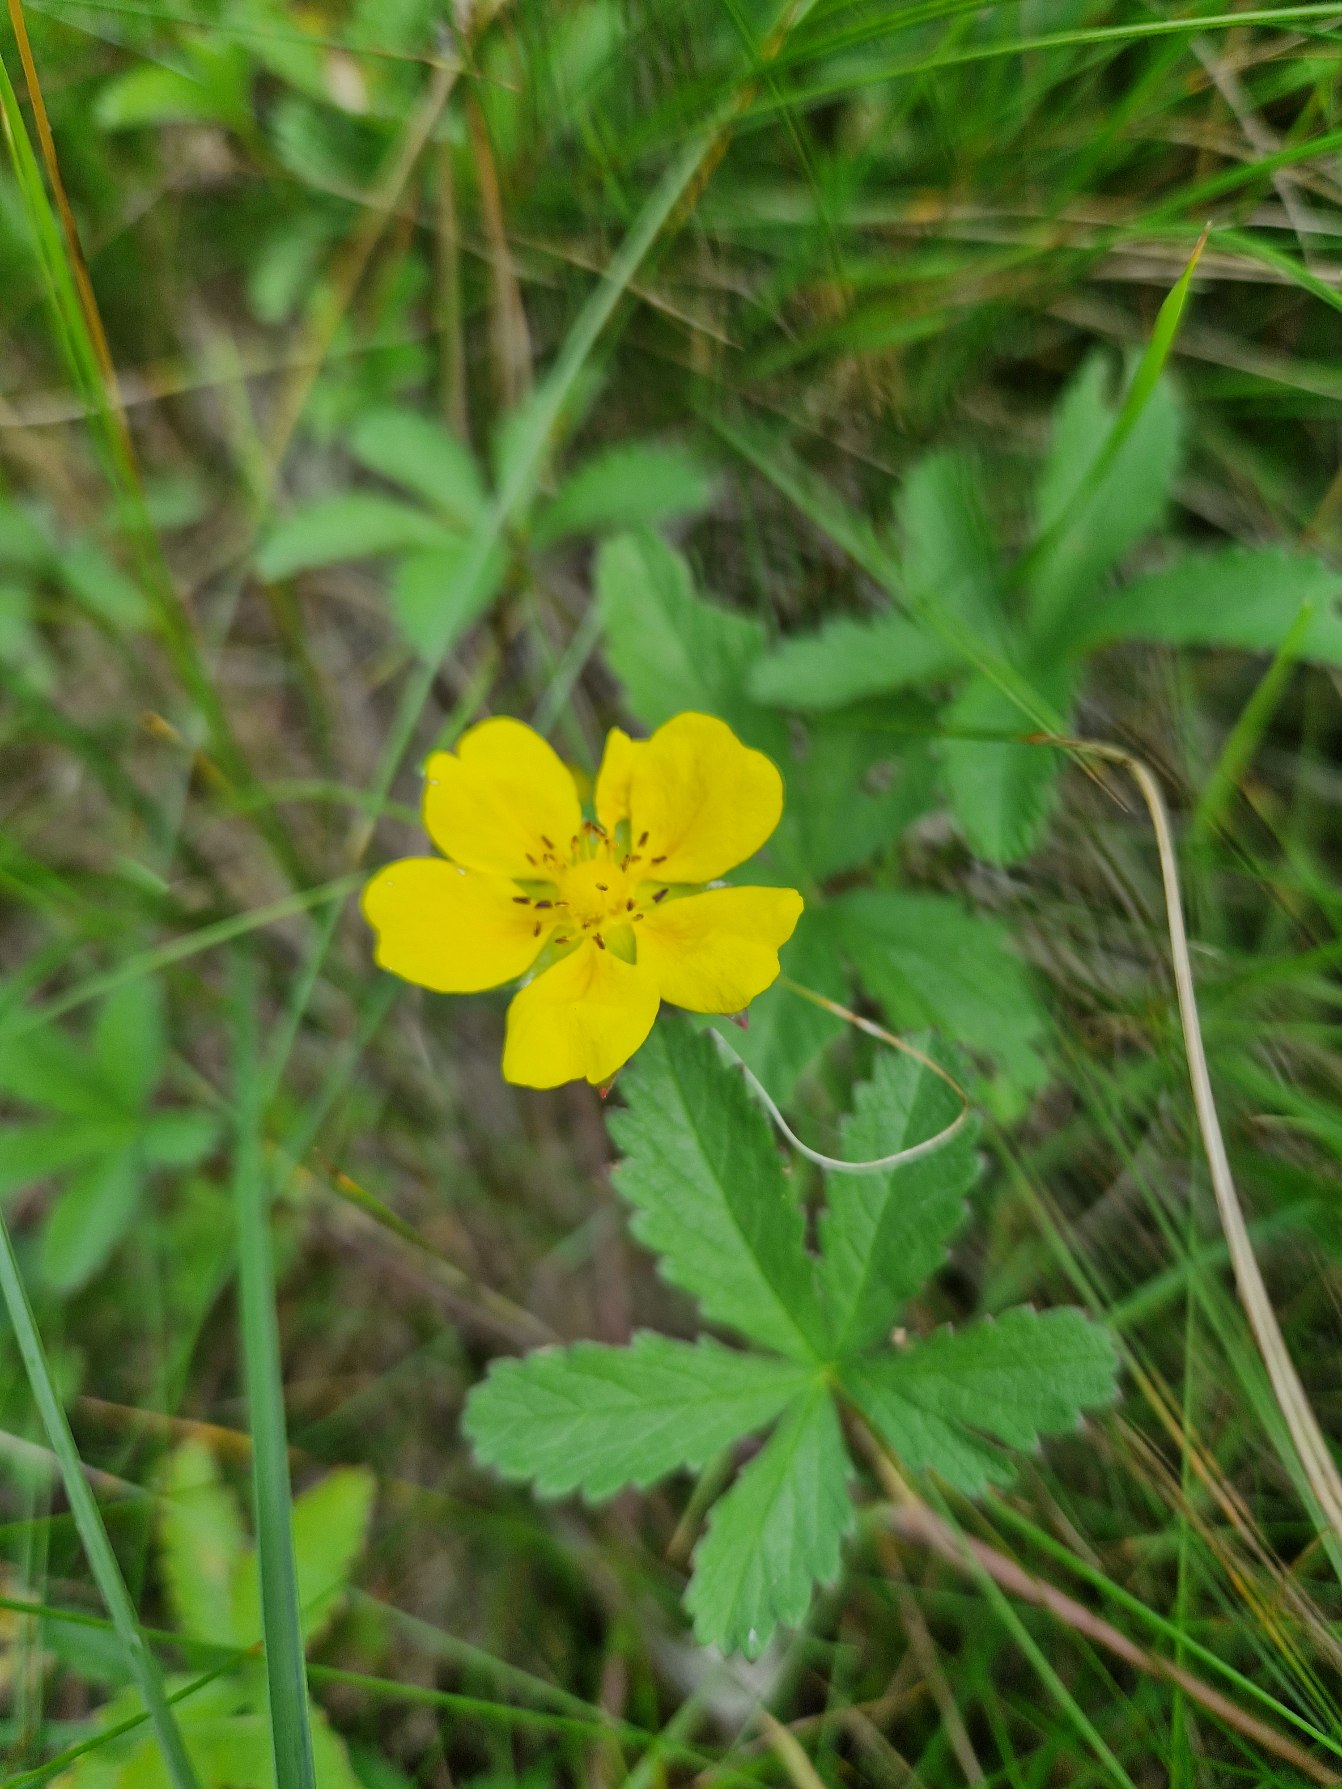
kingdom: Plantae
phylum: Tracheophyta
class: Magnoliopsida
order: Rosales
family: Rosaceae
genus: Potentilla
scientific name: Potentilla reptans
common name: Krybende potentil
